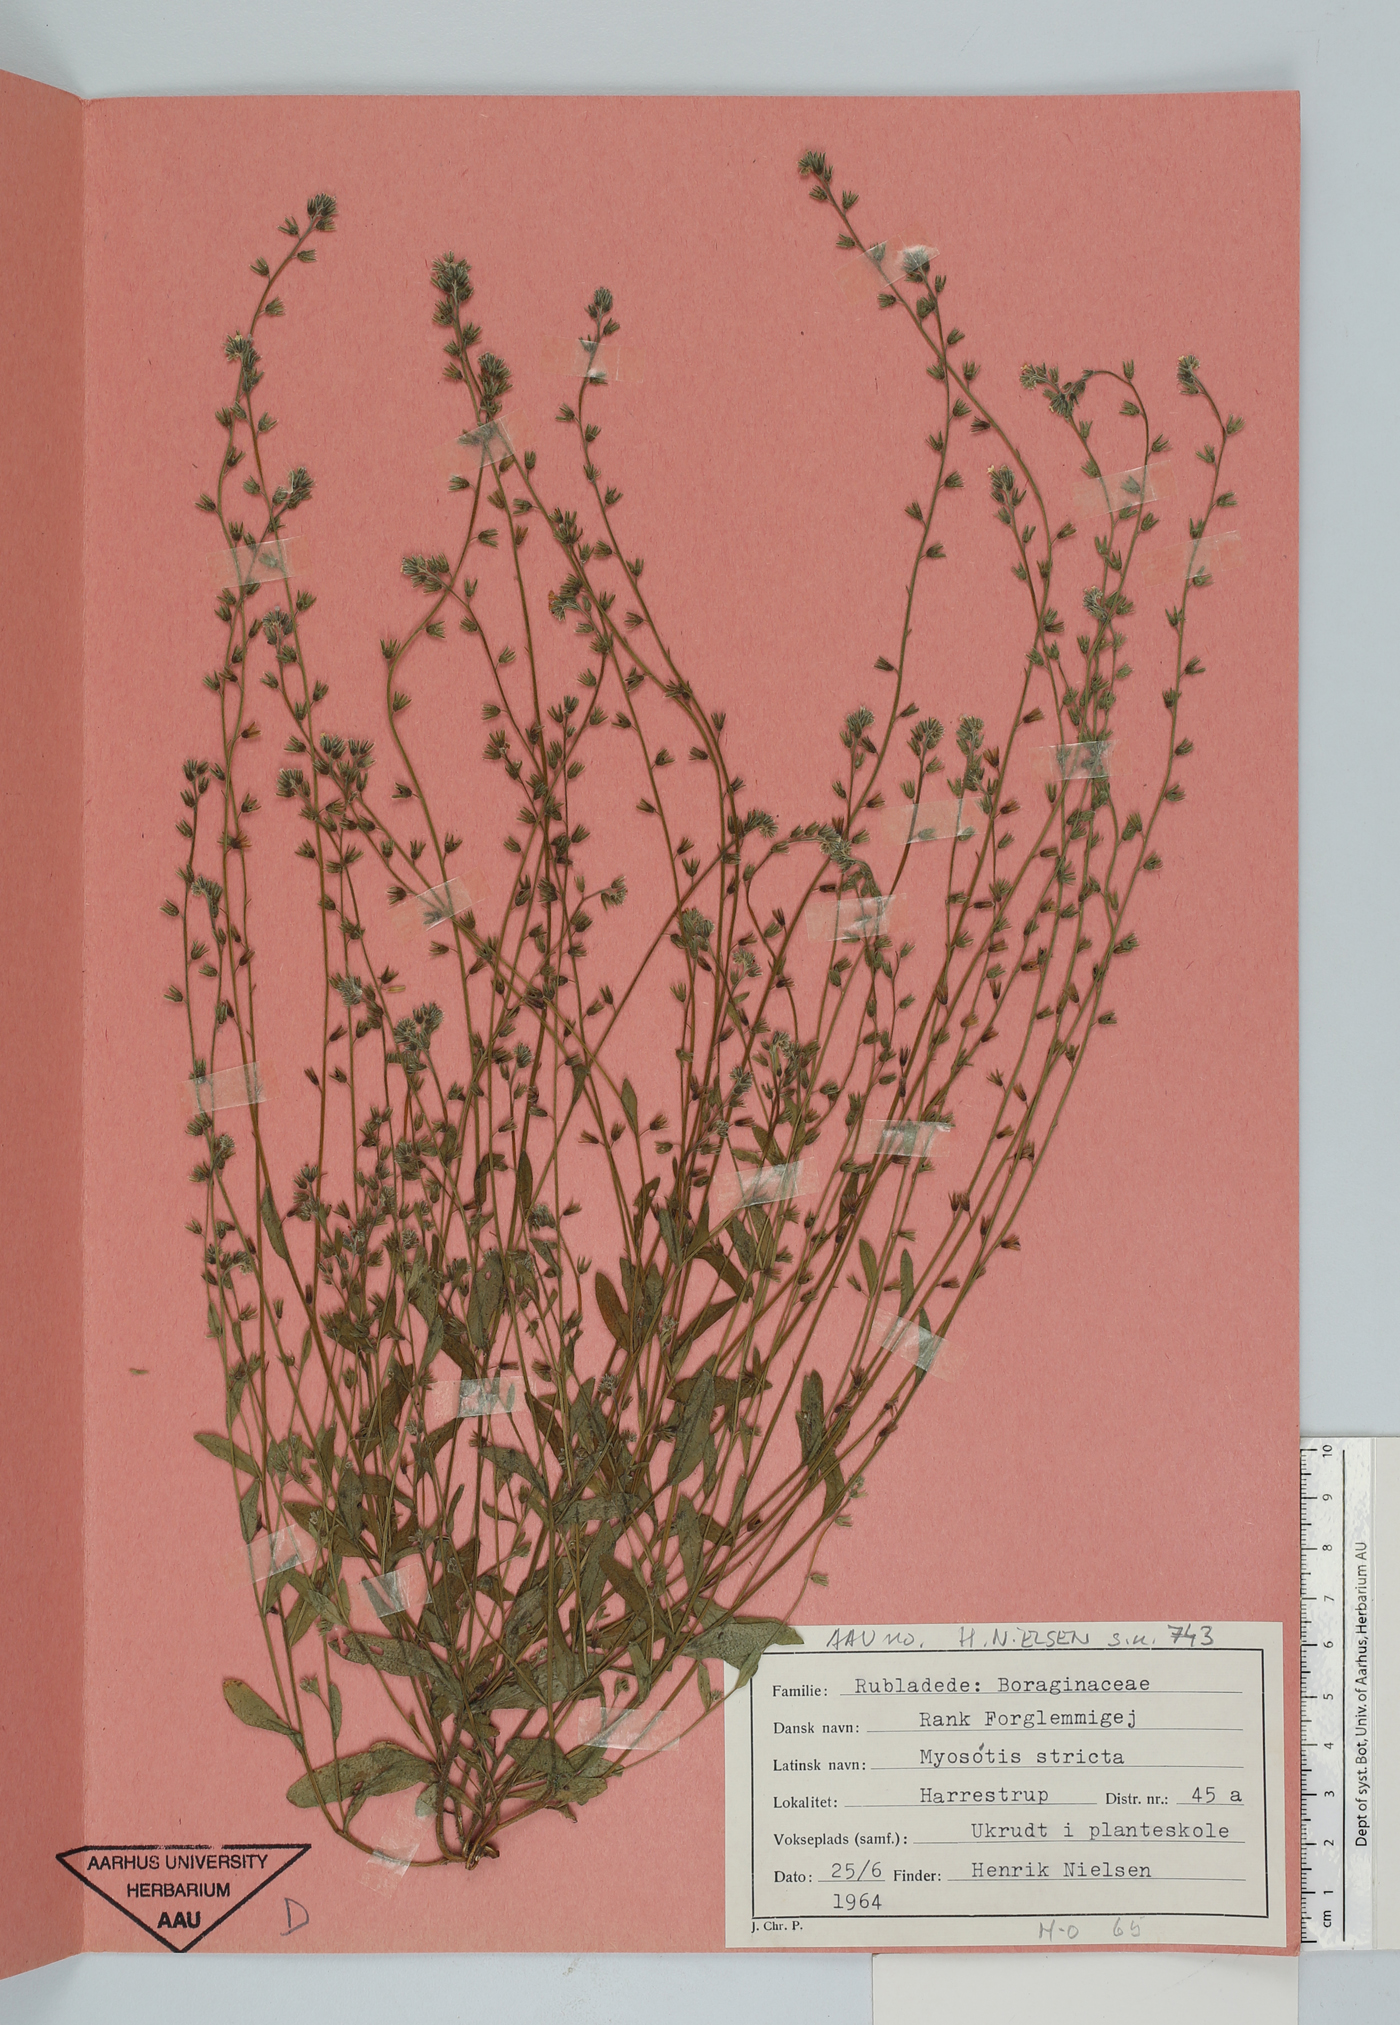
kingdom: Plantae
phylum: Tracheophyta
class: Magnoliopsida
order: Boraginales
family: Boraginaceae
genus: Myosotis
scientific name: Myosotis stricta
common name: Strict forget-me-not
